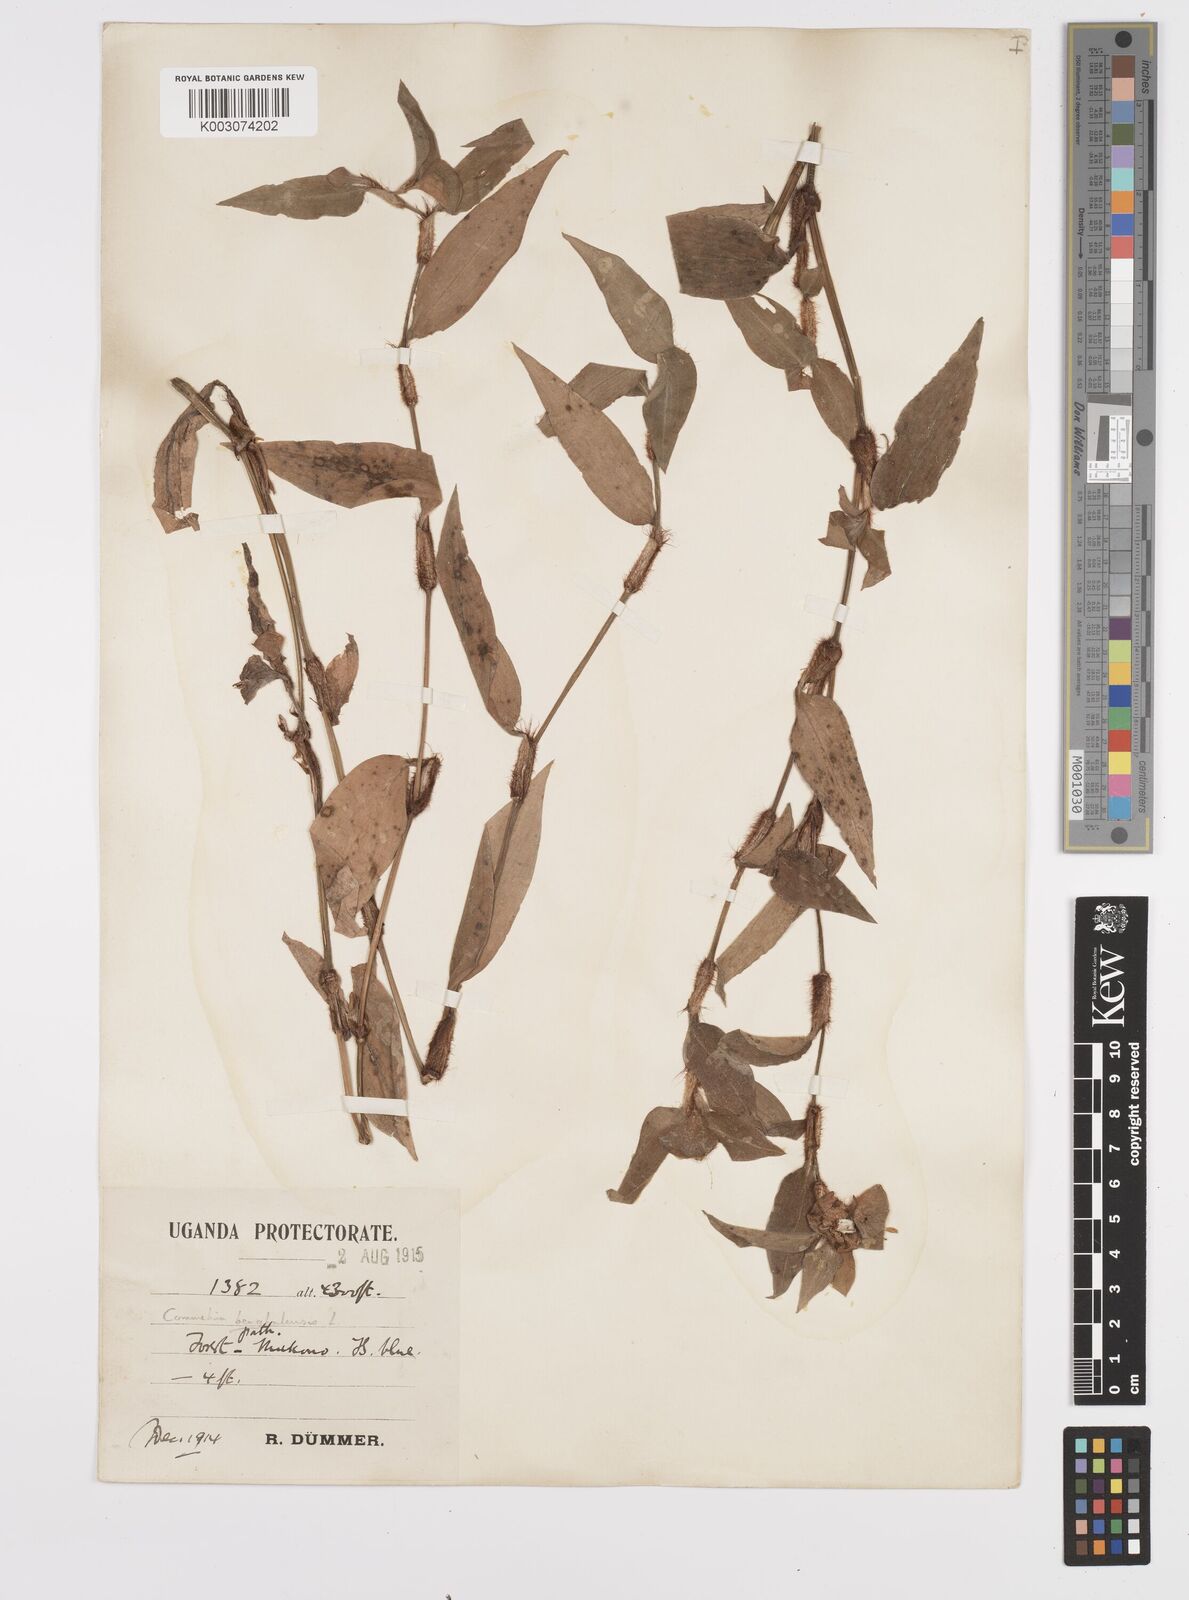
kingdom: Plantae
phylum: Tracheophyta
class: Liliopsida
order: Commelinales
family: Commelinaceae
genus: Commelina
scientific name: Commelina benghalensis
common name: Jio
